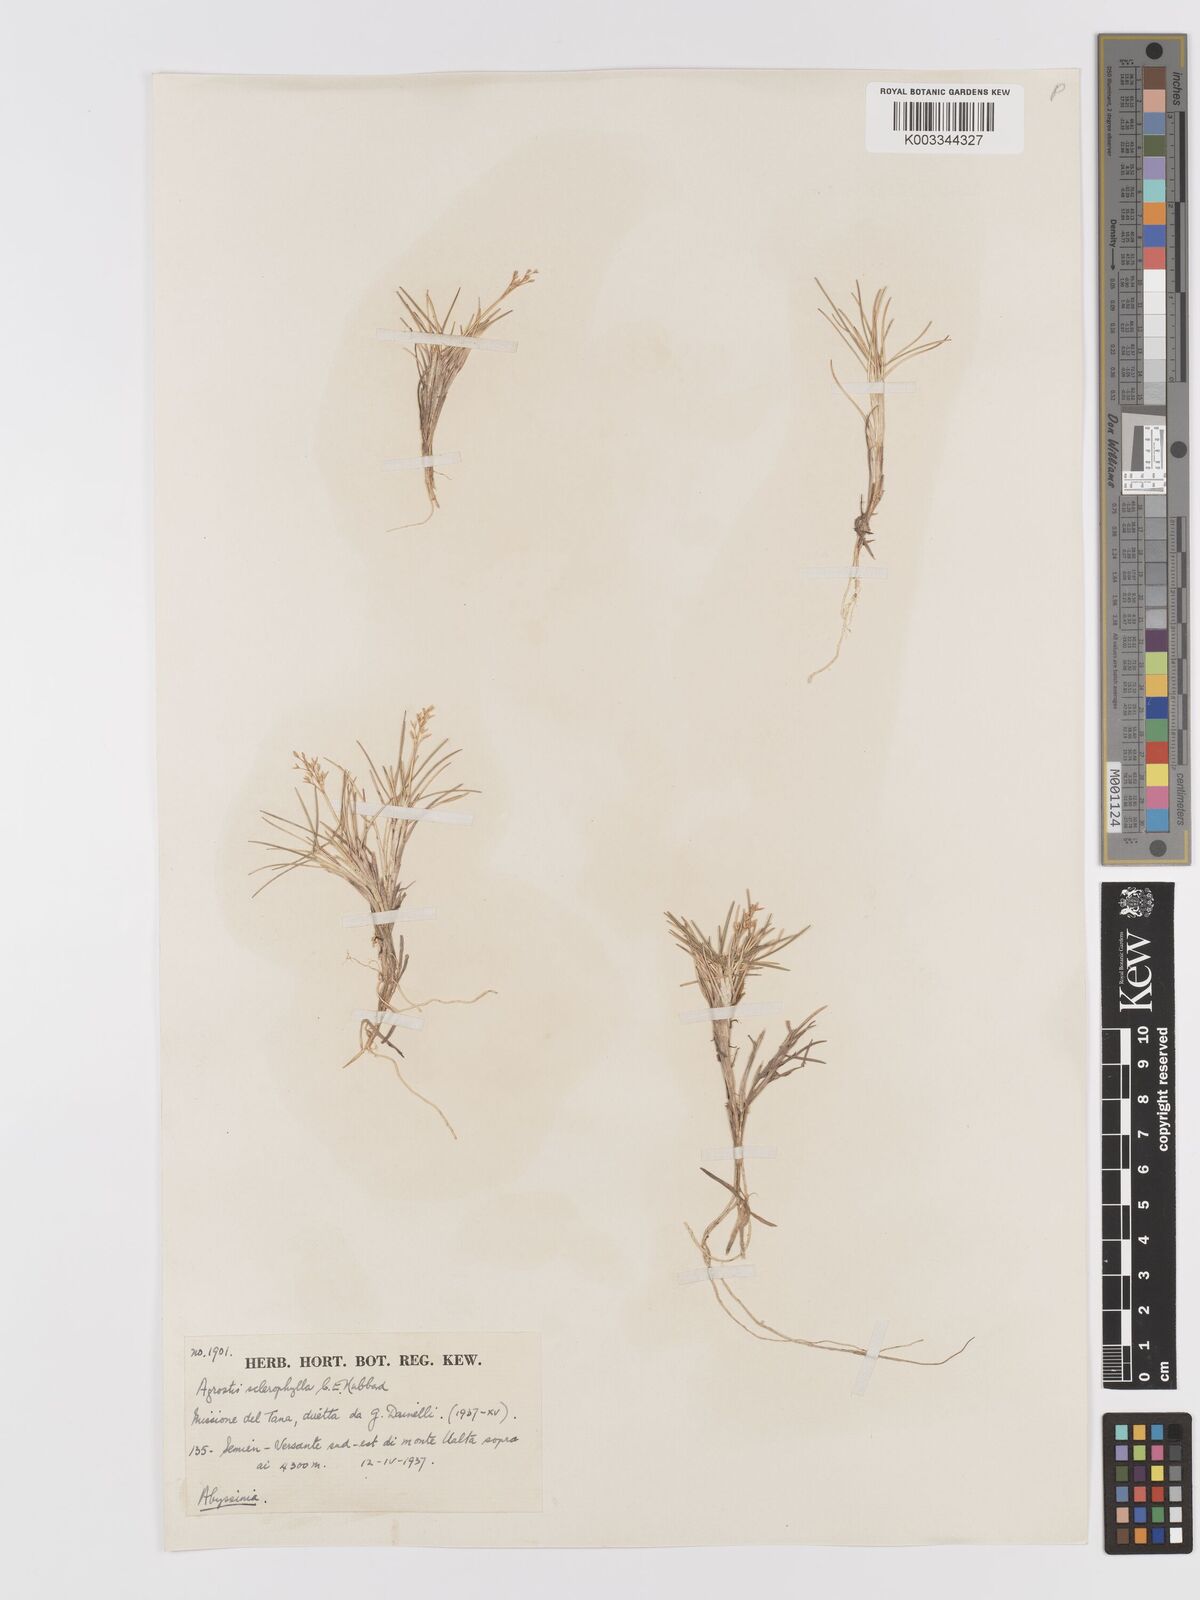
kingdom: Plantae
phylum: Tracheophyta
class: Liliopsida
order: Poales
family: Poaceae
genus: Agrostis
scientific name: Agrostis sclerophylla
